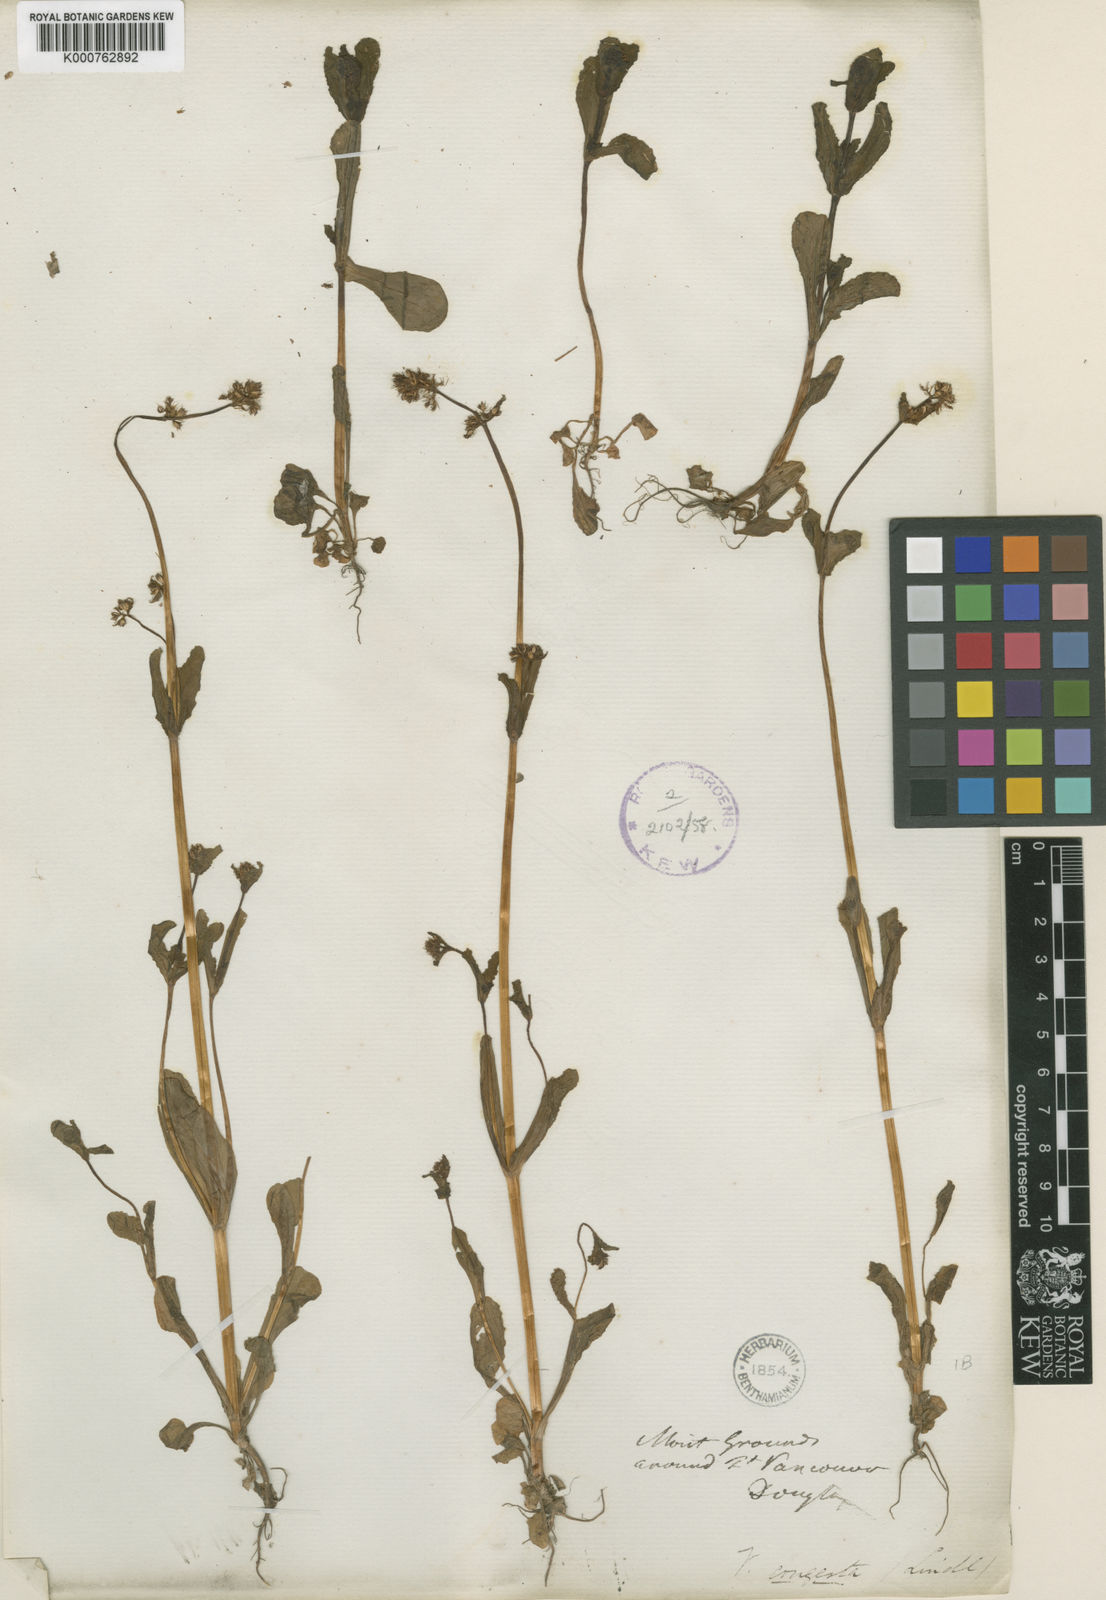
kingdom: Plantae
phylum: Tracheophyta
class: Magnoliopsida
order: Dipsacales
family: Caprifoliaceae
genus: Plectritis
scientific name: Plectritis congesta
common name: Pink plectritis
